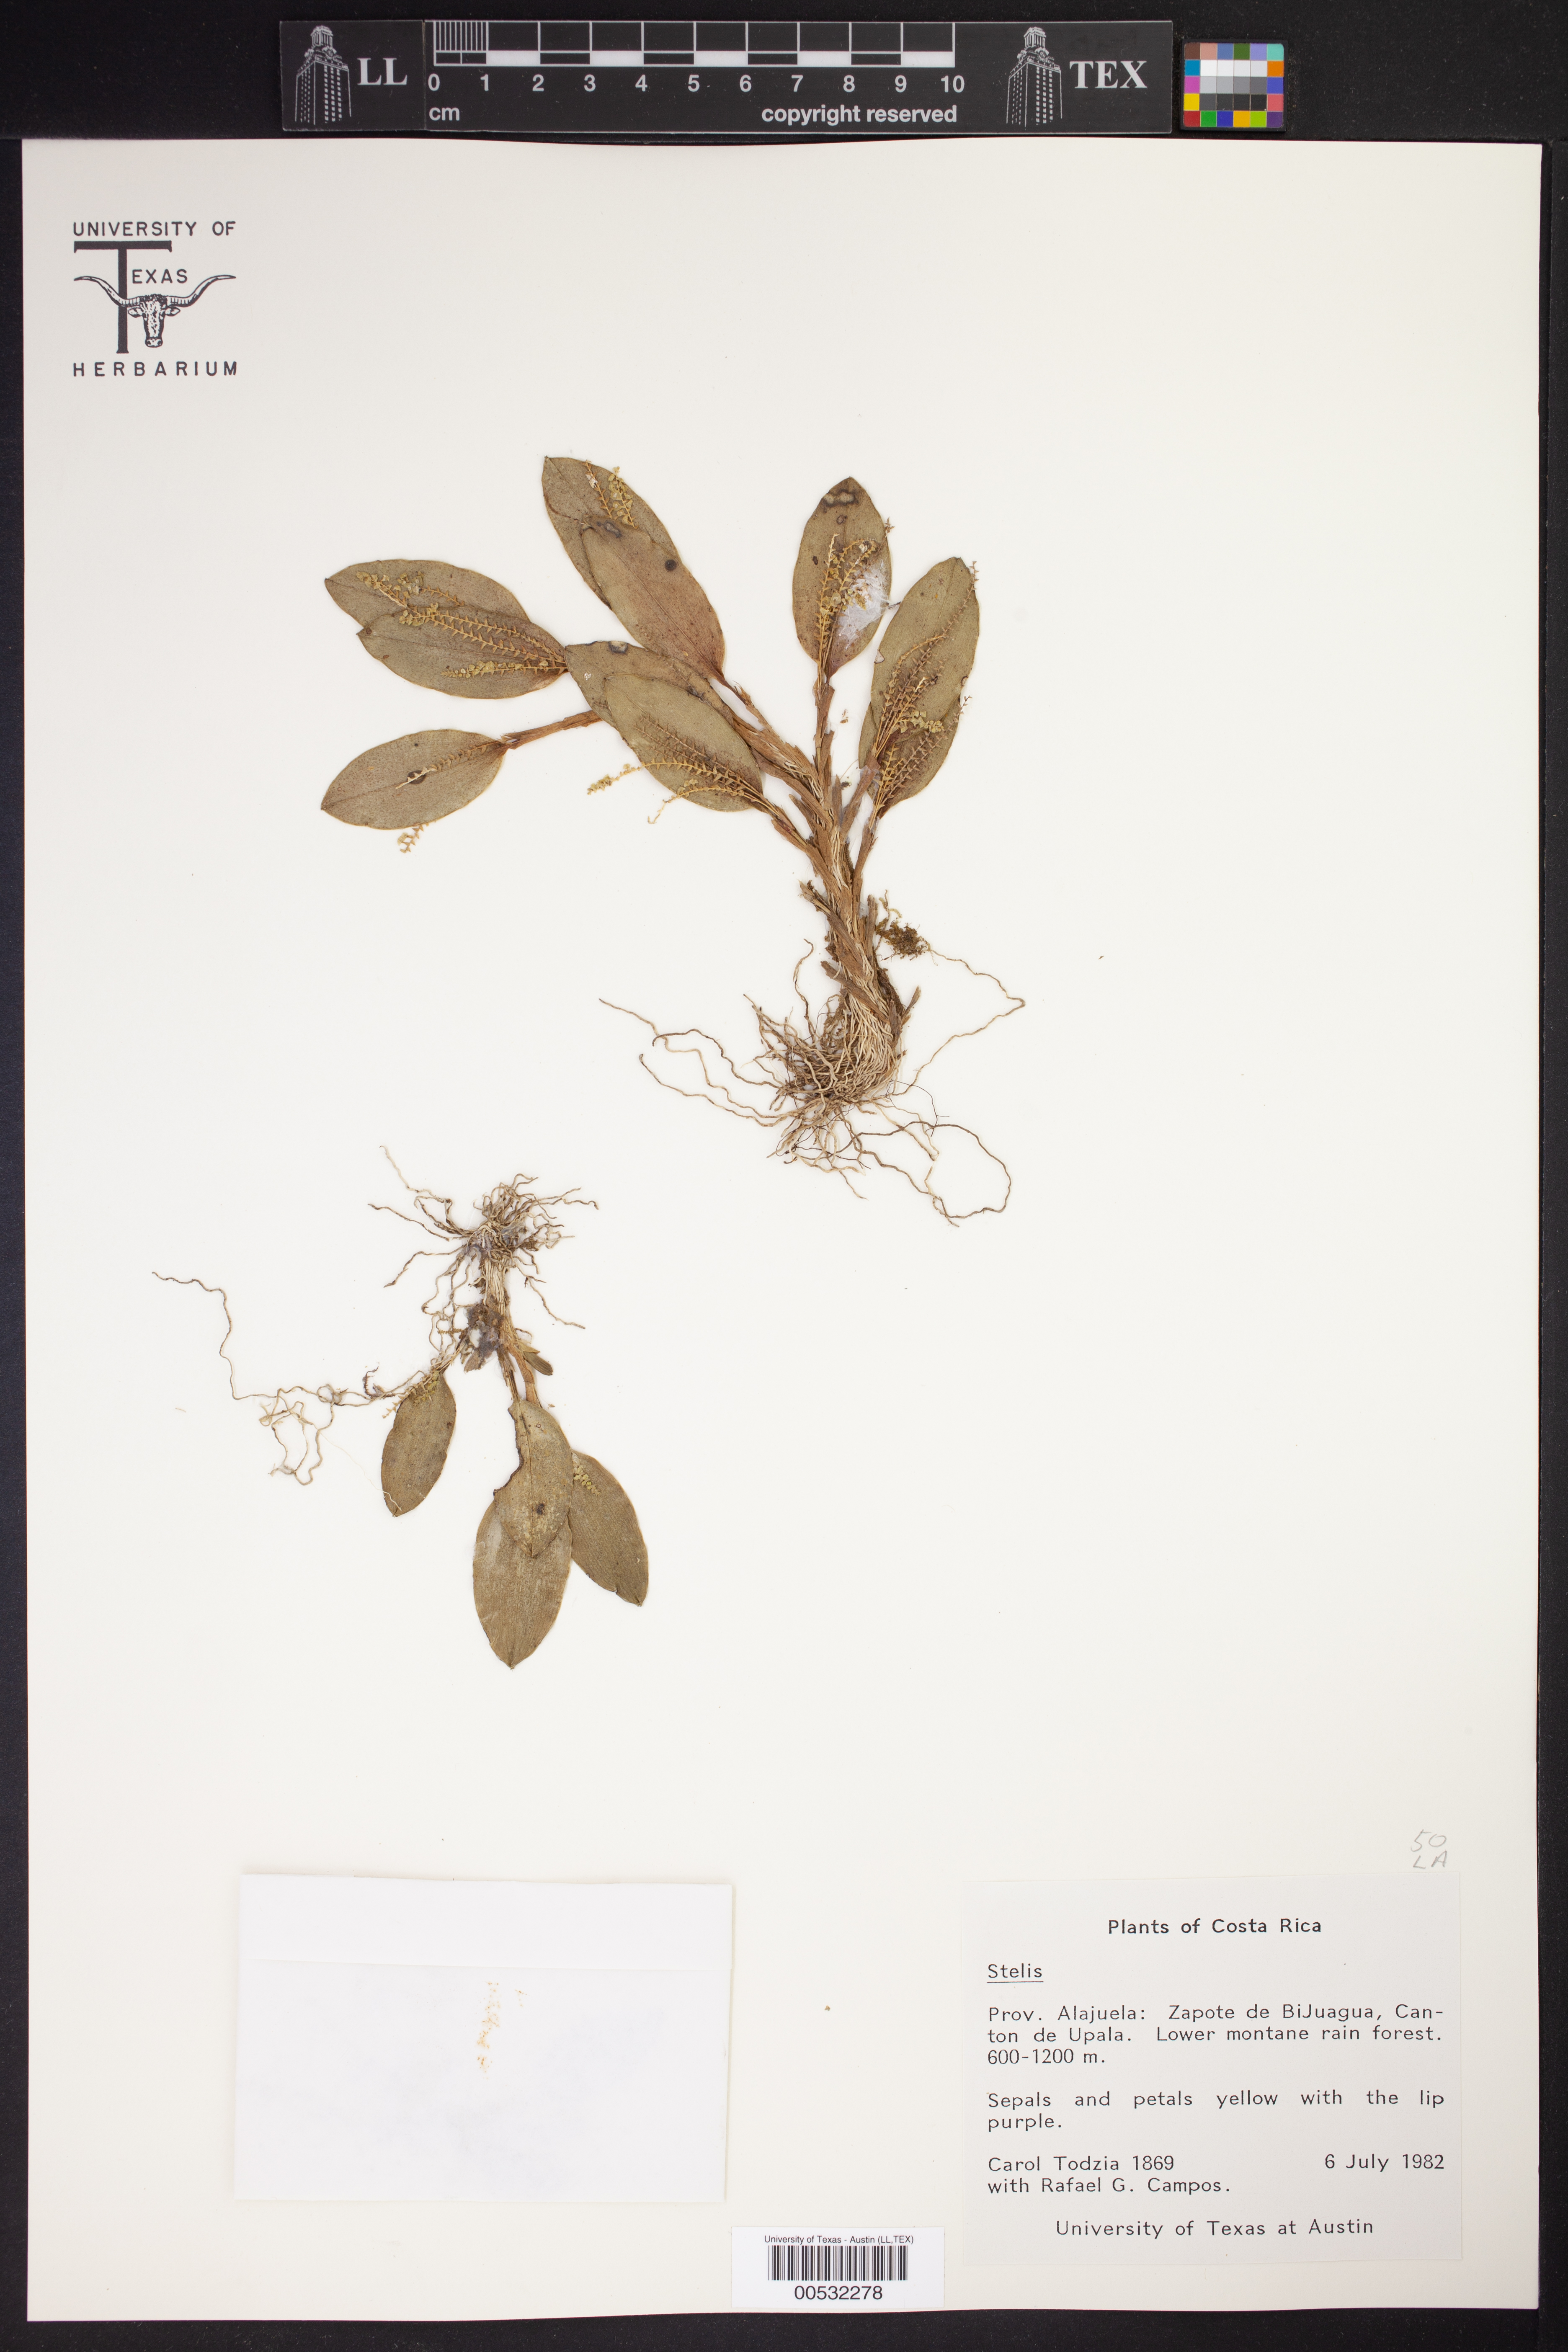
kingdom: Plantae
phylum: Tracheophyta
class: Liliopsida
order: Asparagales
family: Orchidaceae
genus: Stelis
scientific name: Stelis
